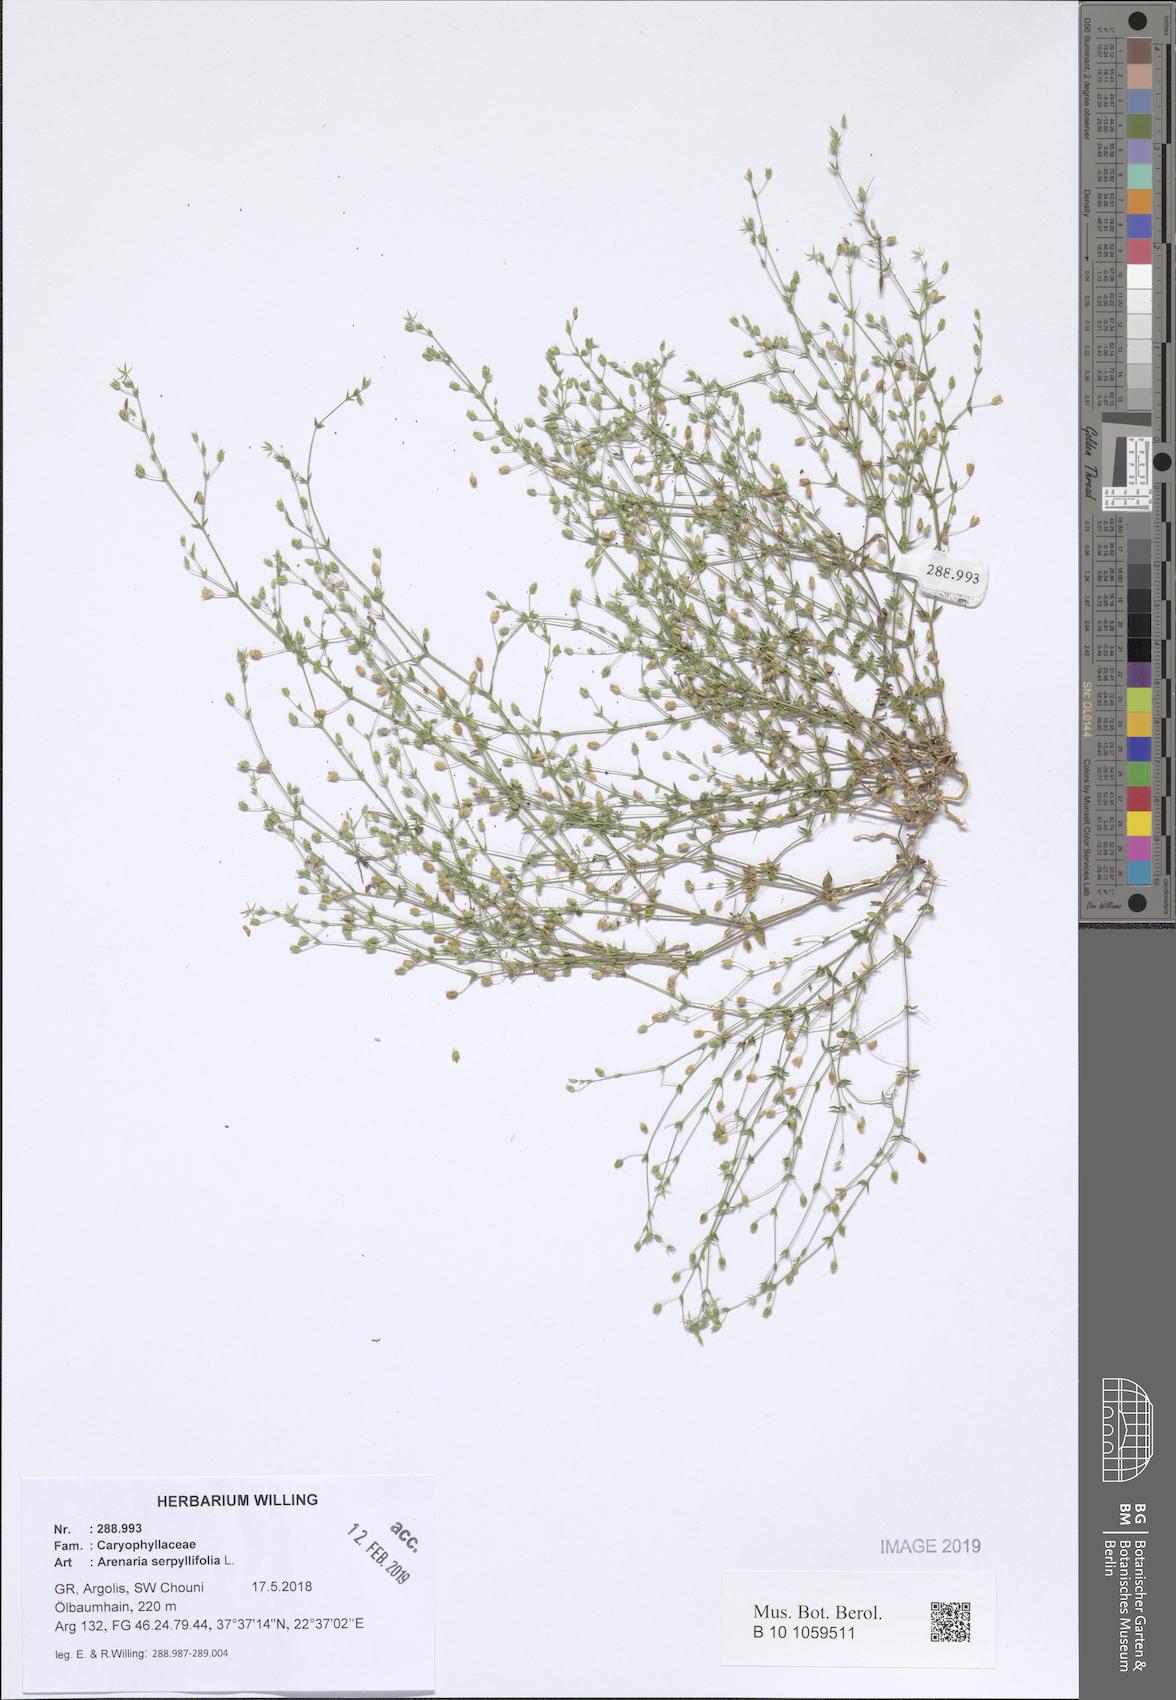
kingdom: Plantae
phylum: Tracheophyta
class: Magnoliopsida
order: Caryophyllales
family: Caryophyllaceae
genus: Arenaria
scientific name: Arenaria serpyllifolia
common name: Thyme-leaved sandwort
